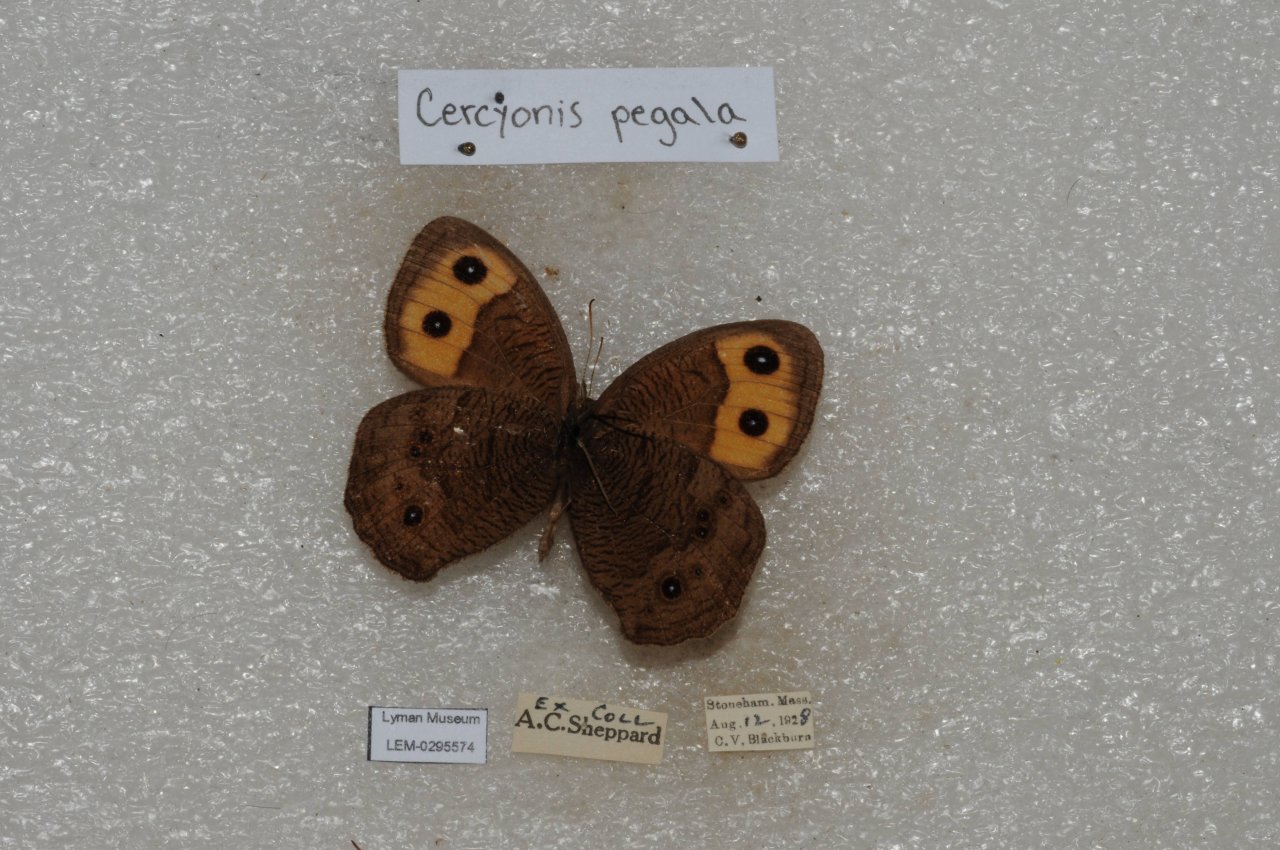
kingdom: Animalia
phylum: Arthropoda
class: Insecta
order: Lepidoptera
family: Nymphalidae
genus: Cercyonis
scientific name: Cercyonis pegala
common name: Common Wood-Nymph
